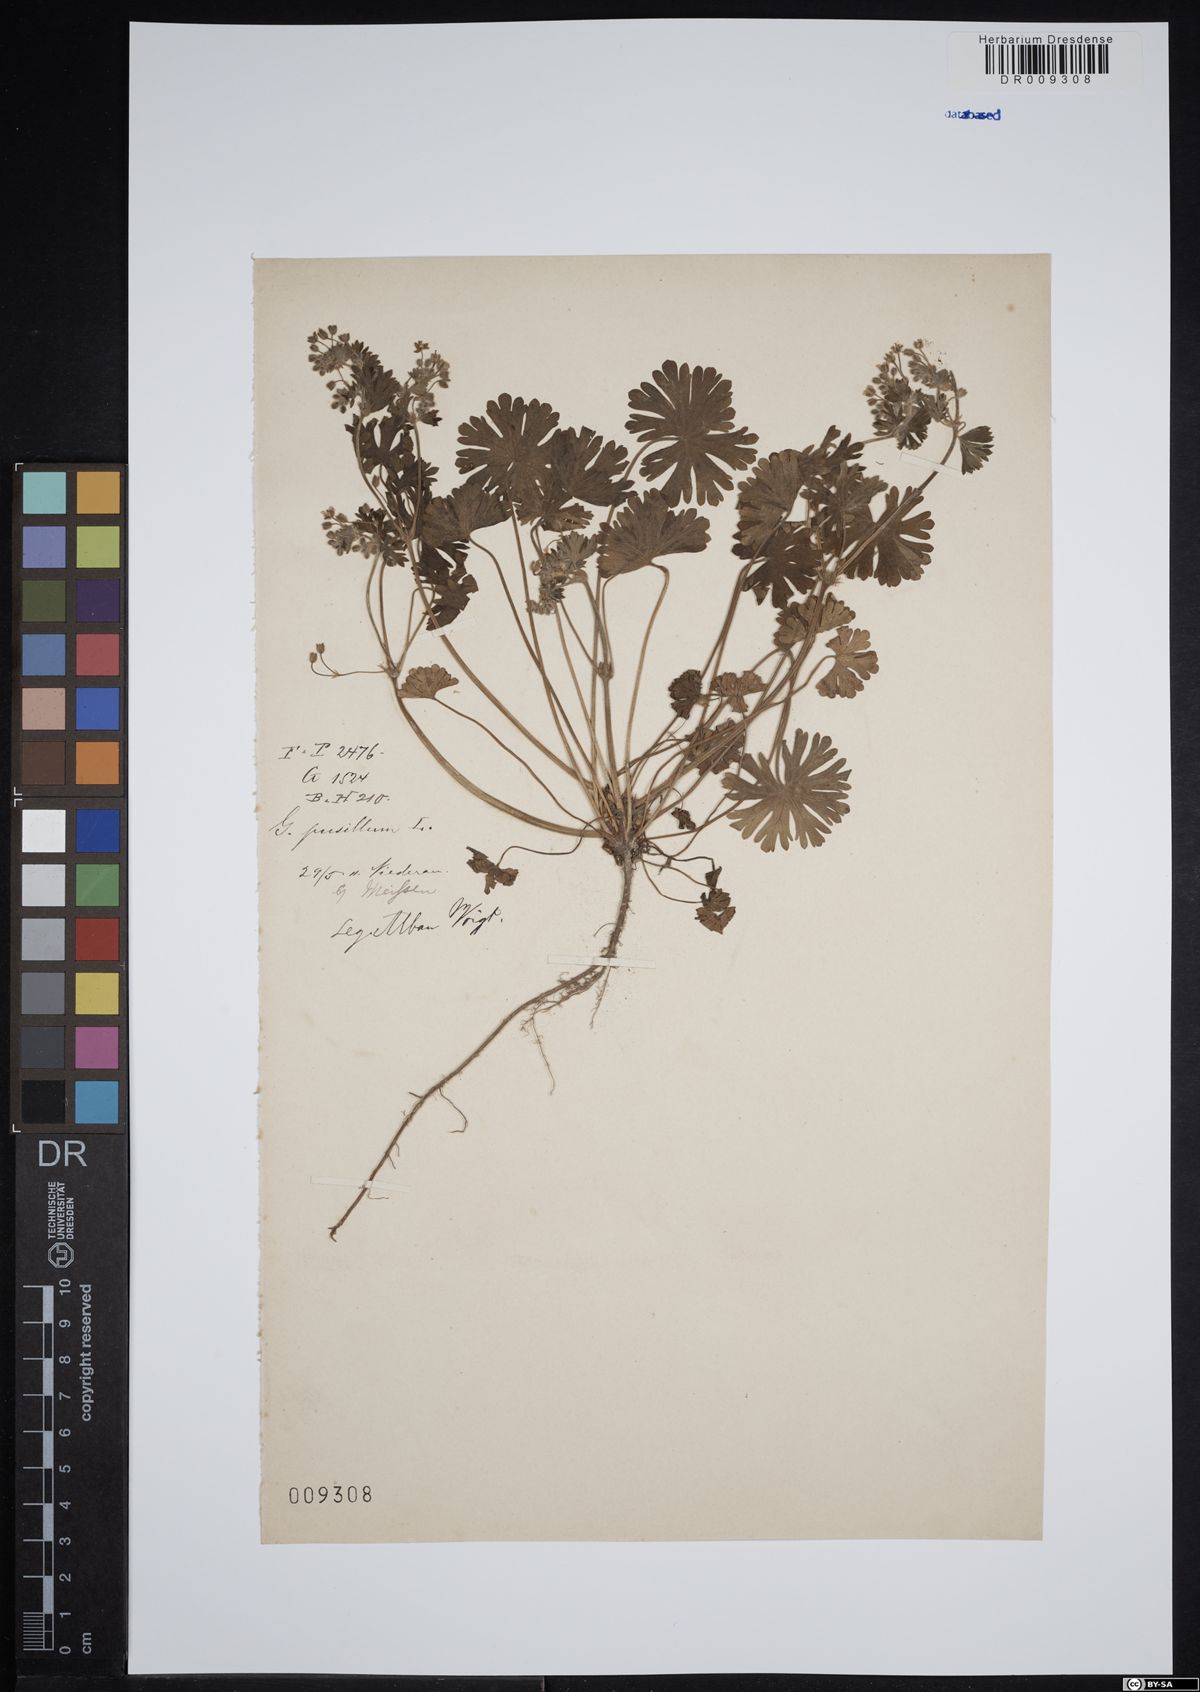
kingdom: Plantae
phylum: Tracheophyta
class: Magnoliopsida
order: Geraniales
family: Geraniaceae
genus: Geranium
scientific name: Geranium pusillum
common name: Small geranium
